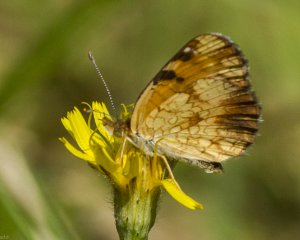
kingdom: Animalia
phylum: Arthropoda
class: Insecta
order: Lepidoptera
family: Nymphalidae
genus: Phyciodes
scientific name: Phyciodes tharos
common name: Northern Crescent
